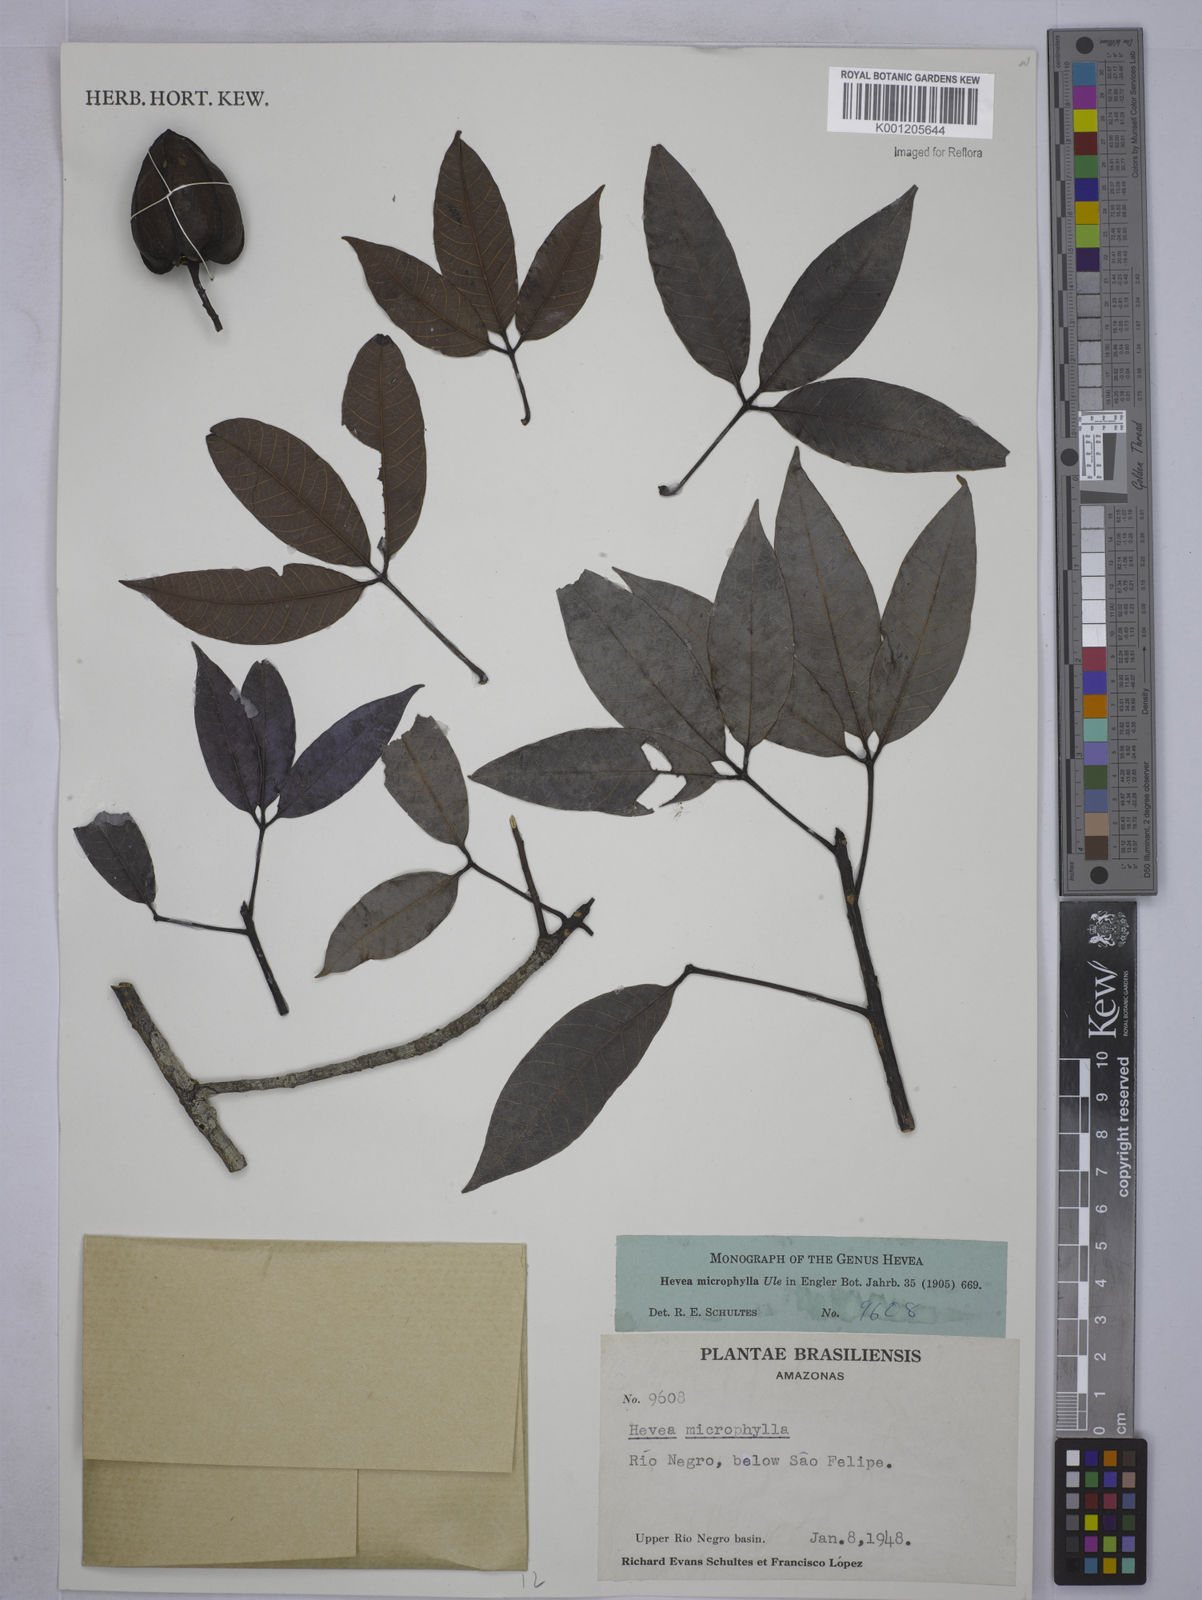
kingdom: Plantae
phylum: Tracheophyta
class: Magnoliopsida
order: Malpighiales
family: Euphorbiaceae
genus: Hevea
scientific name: Hevea microphylla
